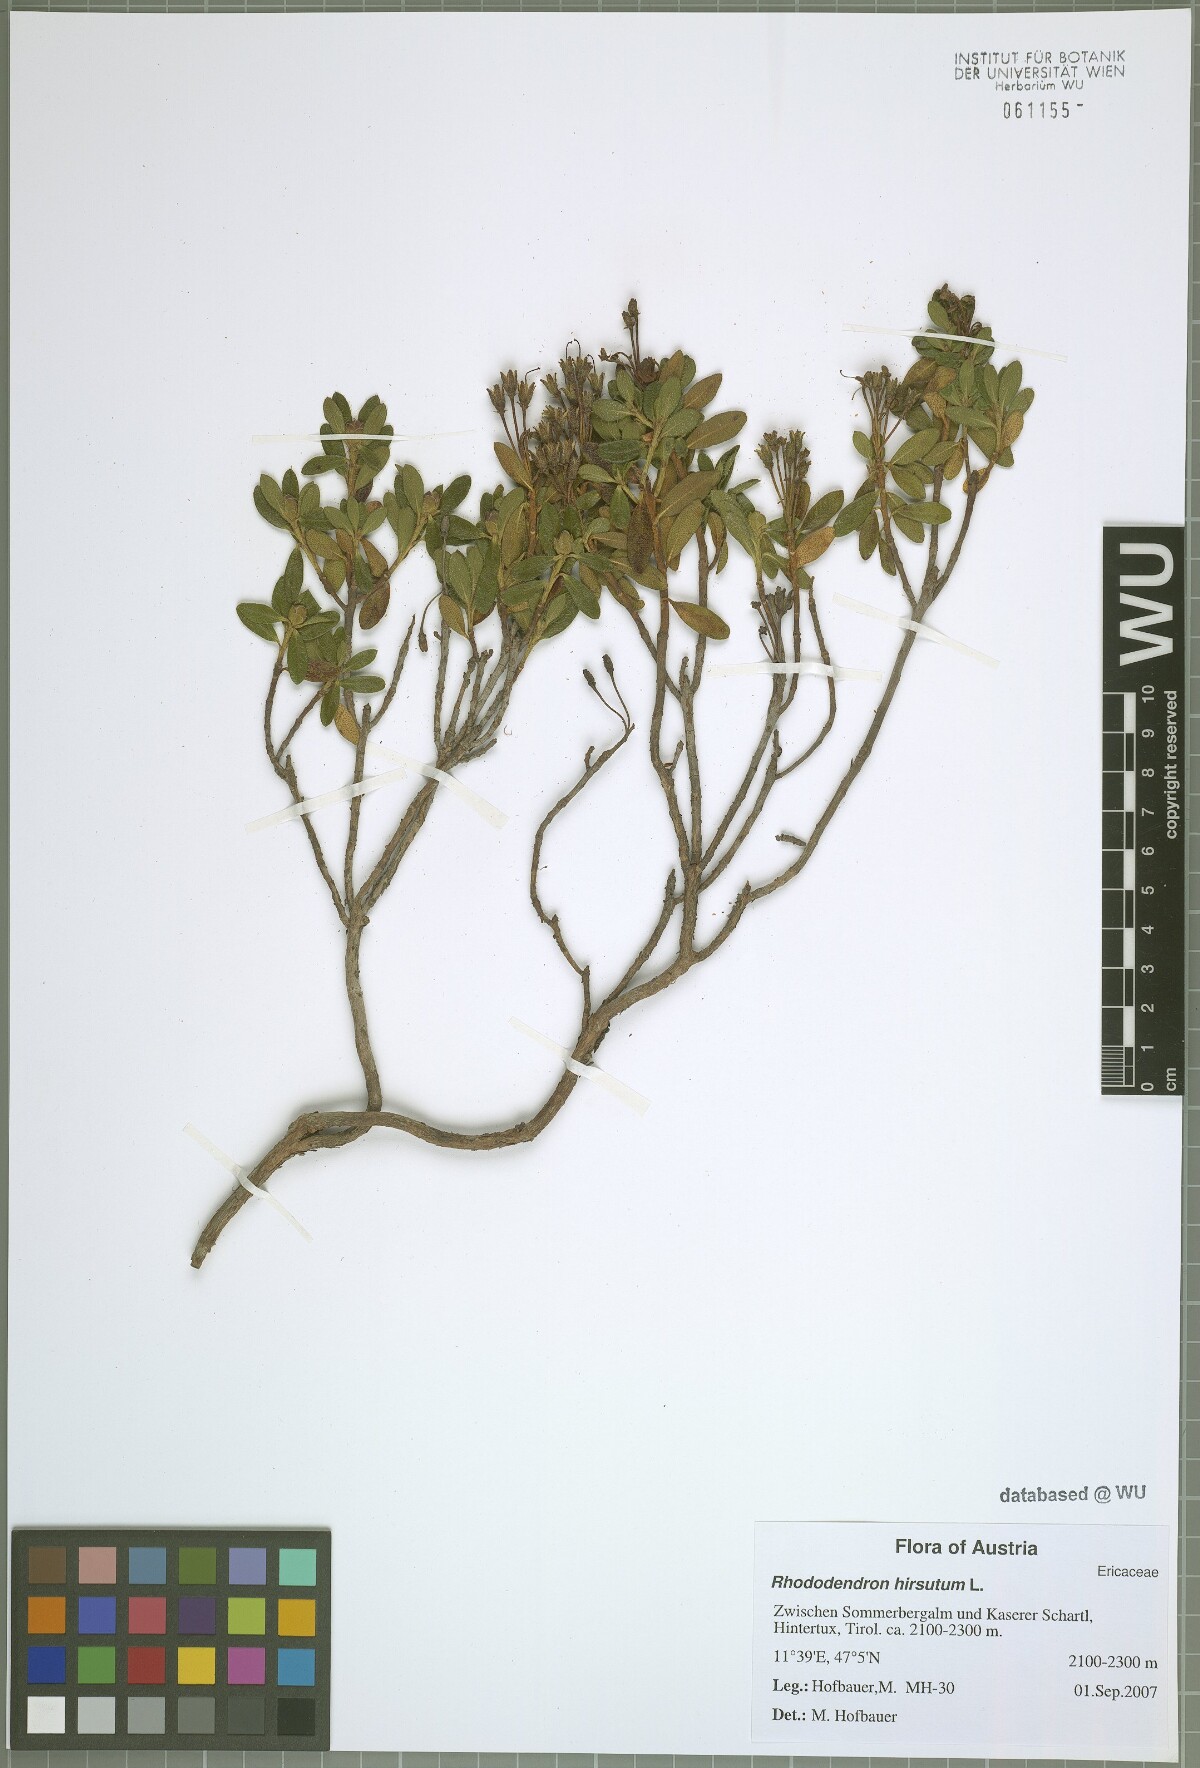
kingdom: Plantae
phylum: Tracheophyta
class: Magnoliopsida
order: Ericales
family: Ericaceae
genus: Rhododendron
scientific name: Rhododendron hirsutum
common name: Hairy alpenrose
